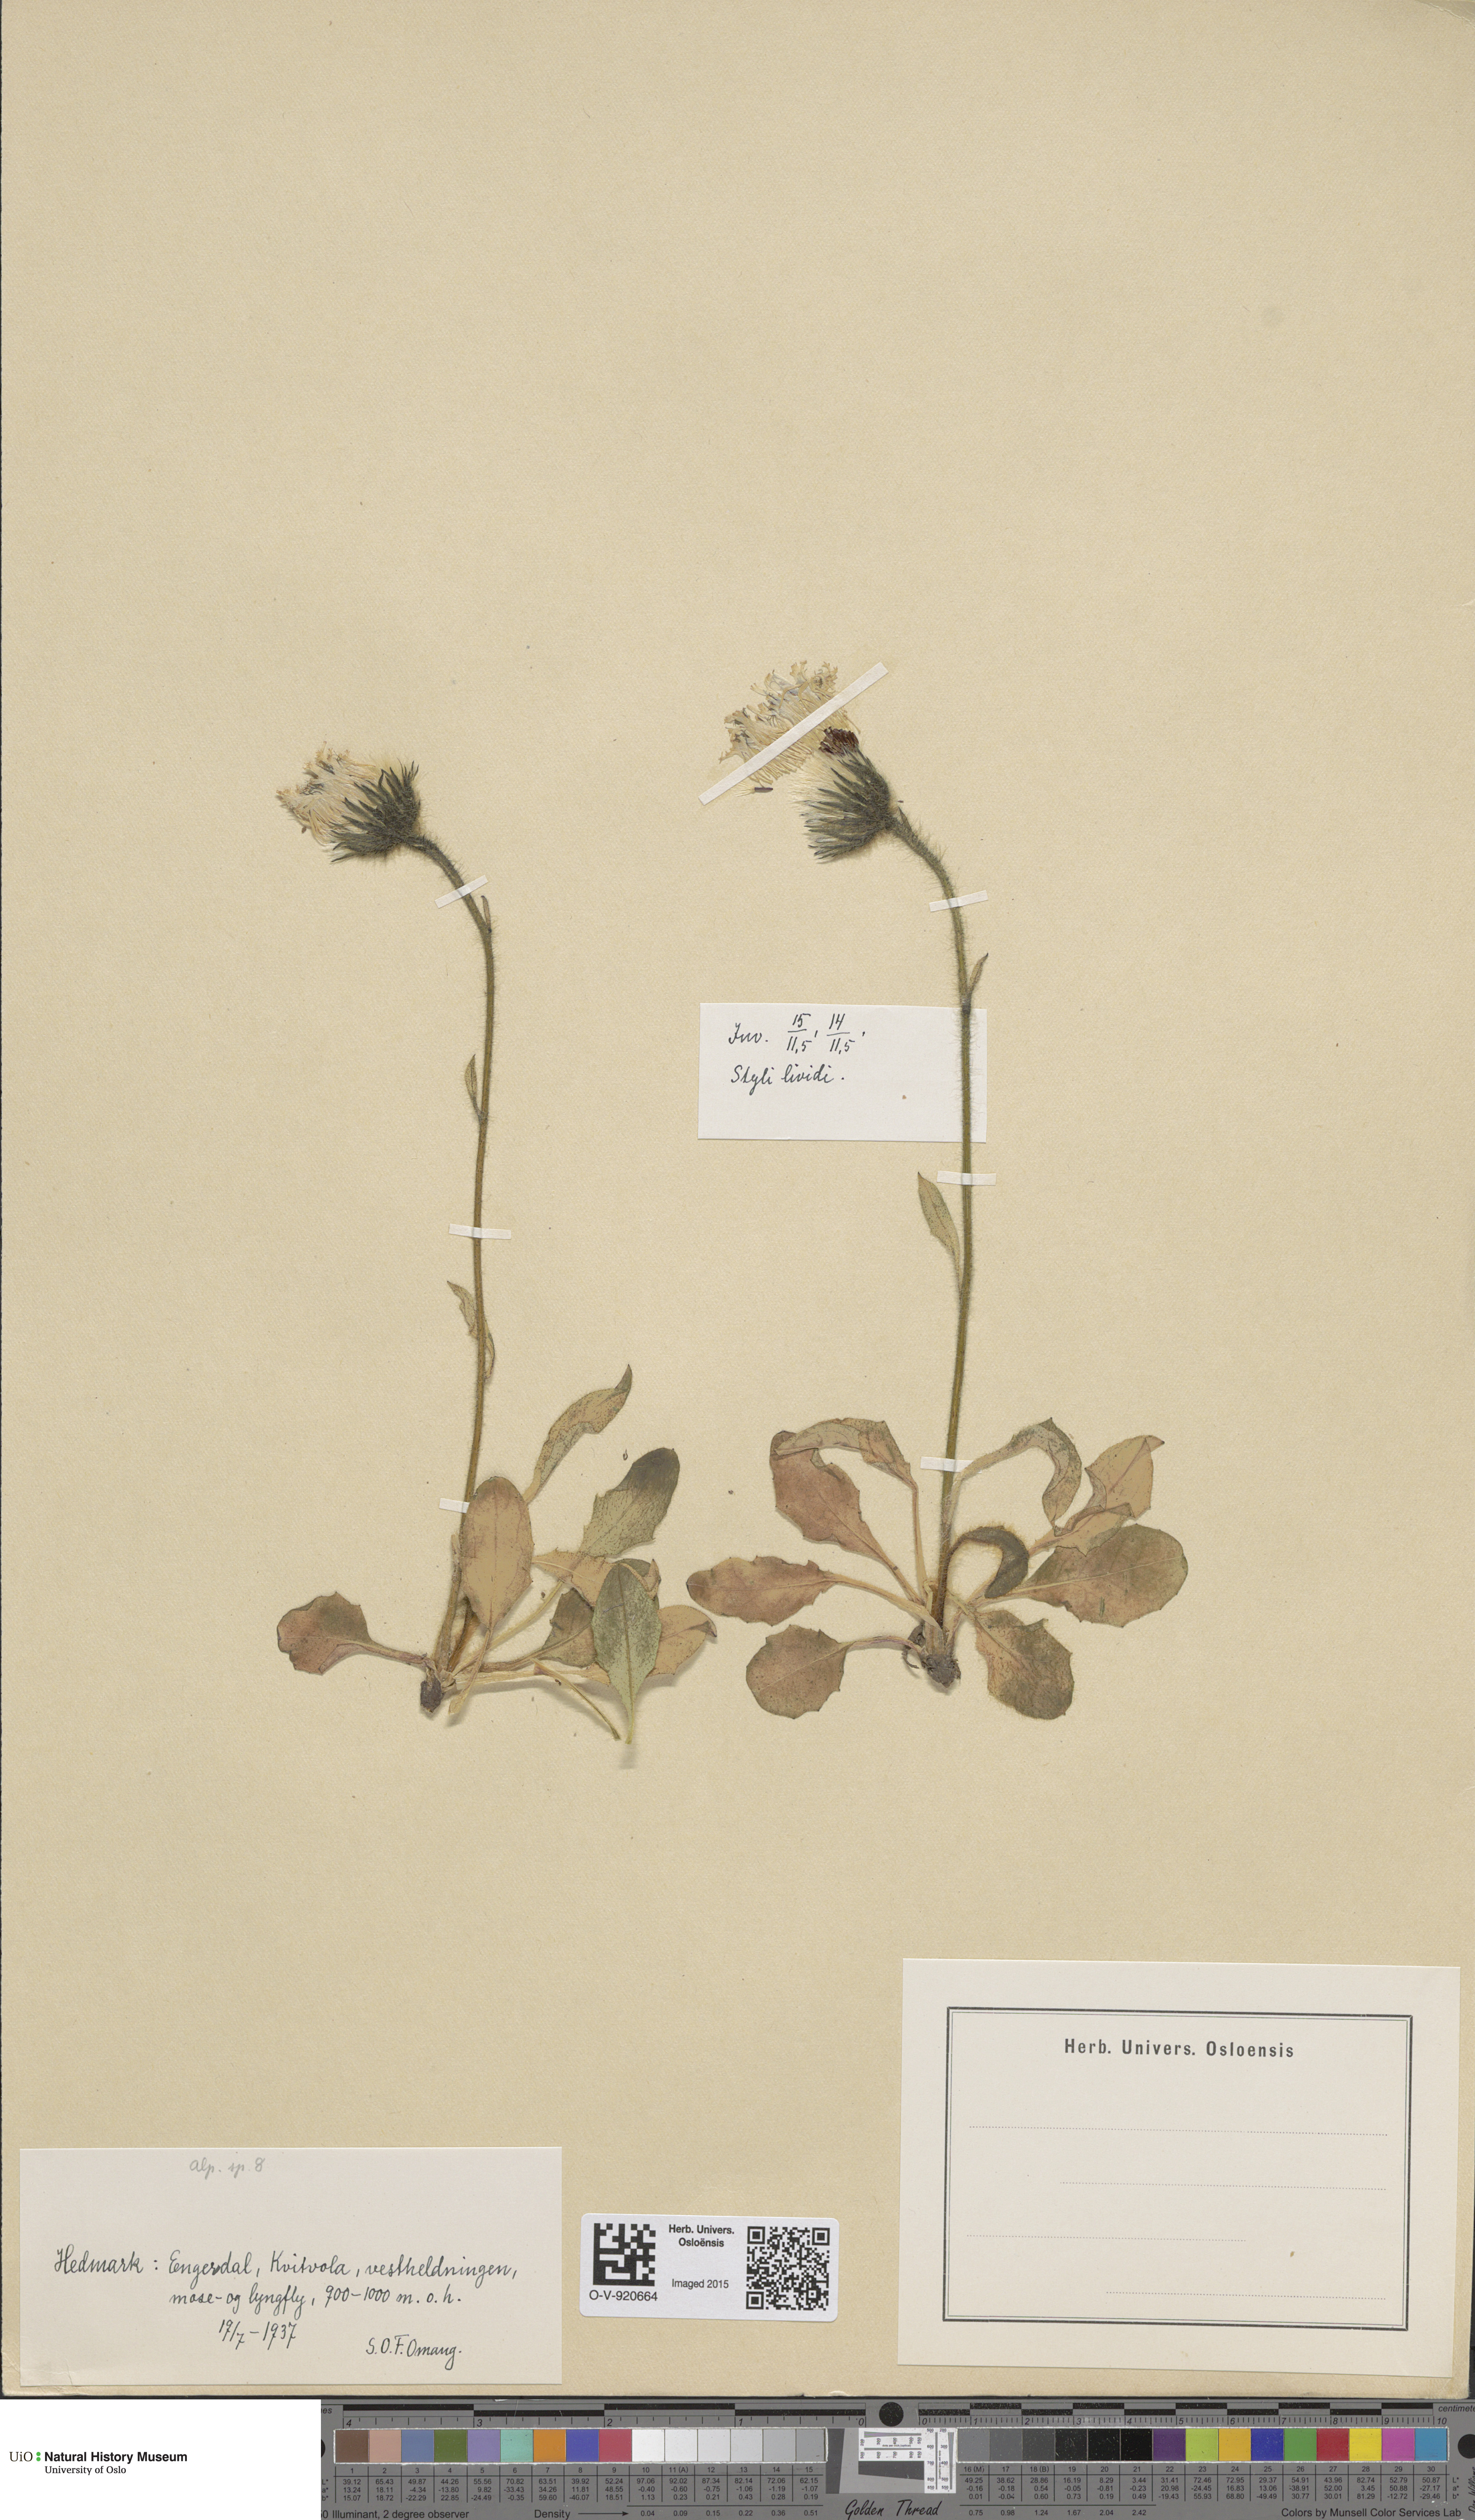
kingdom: Plantae
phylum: Tracheophyta
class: Magnoliopsida
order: Asterales
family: Asteraceae
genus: Hieracium
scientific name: Hieracium alpinum
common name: Alpine hawkweed
